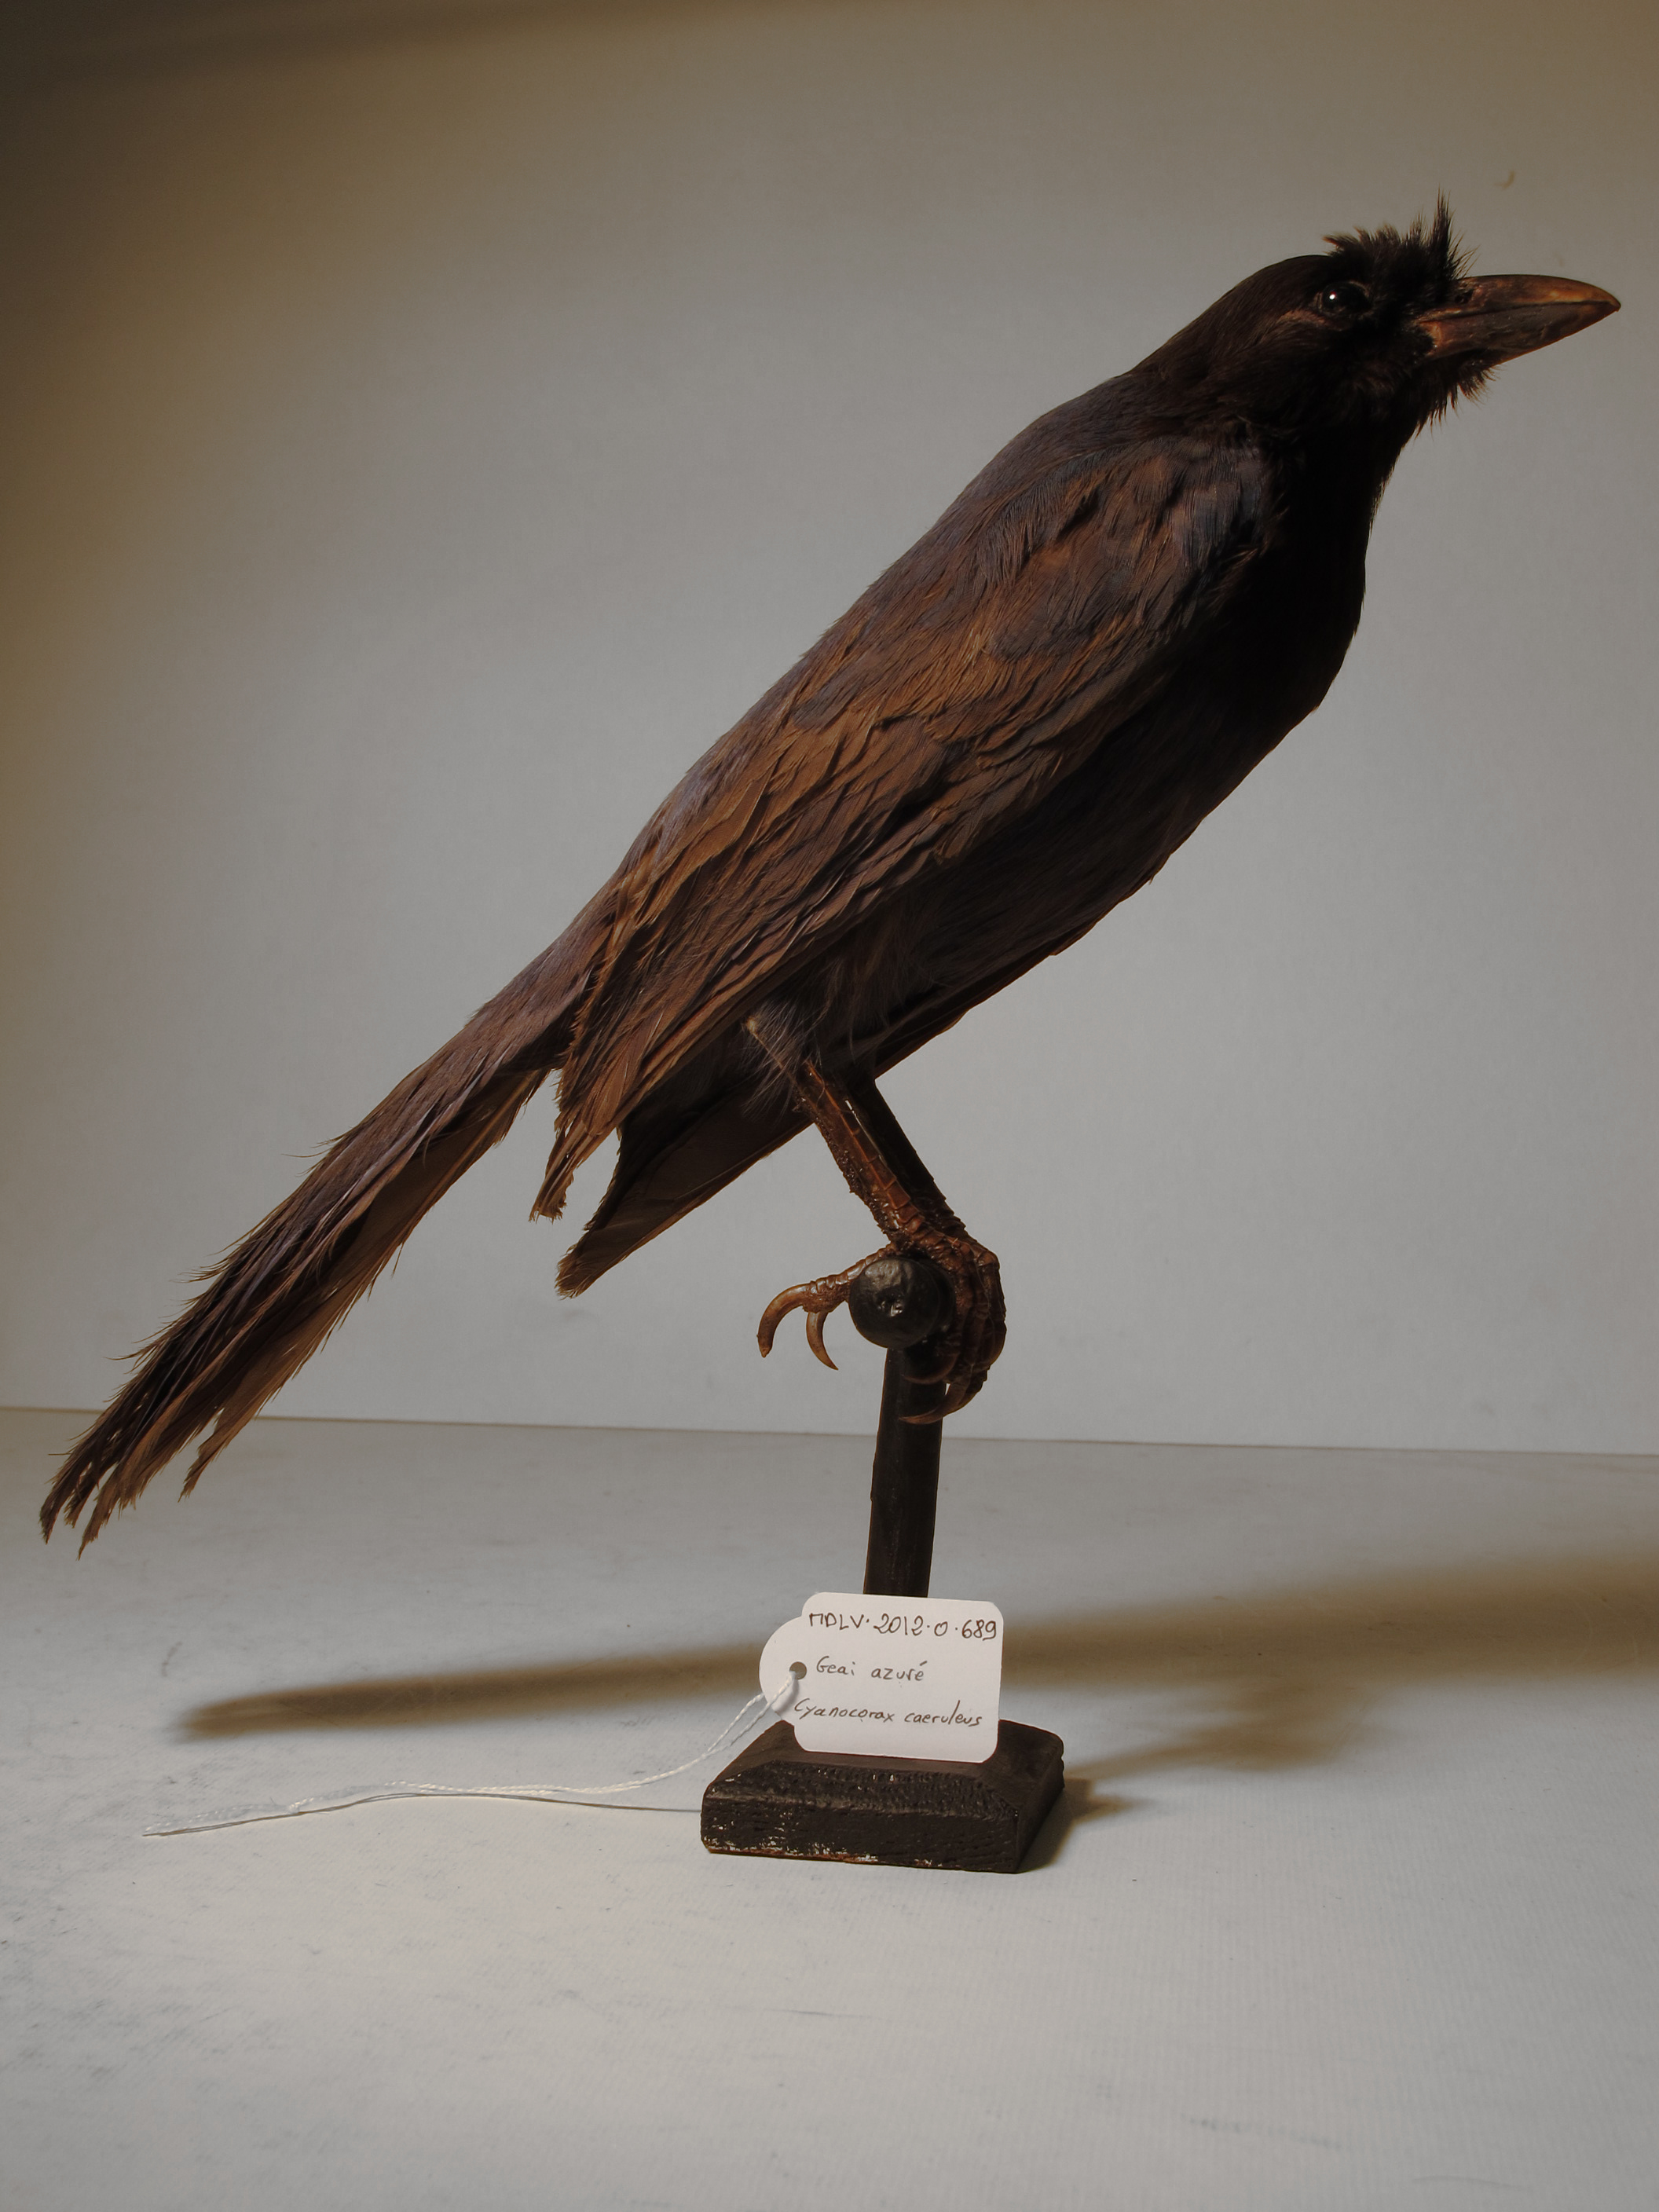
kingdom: Animalia
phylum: Chordata
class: Aves
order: Passeriformes
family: Corvidae
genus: Cyanocorax
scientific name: Cyanocorax caeruleus
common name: Azure Jay
